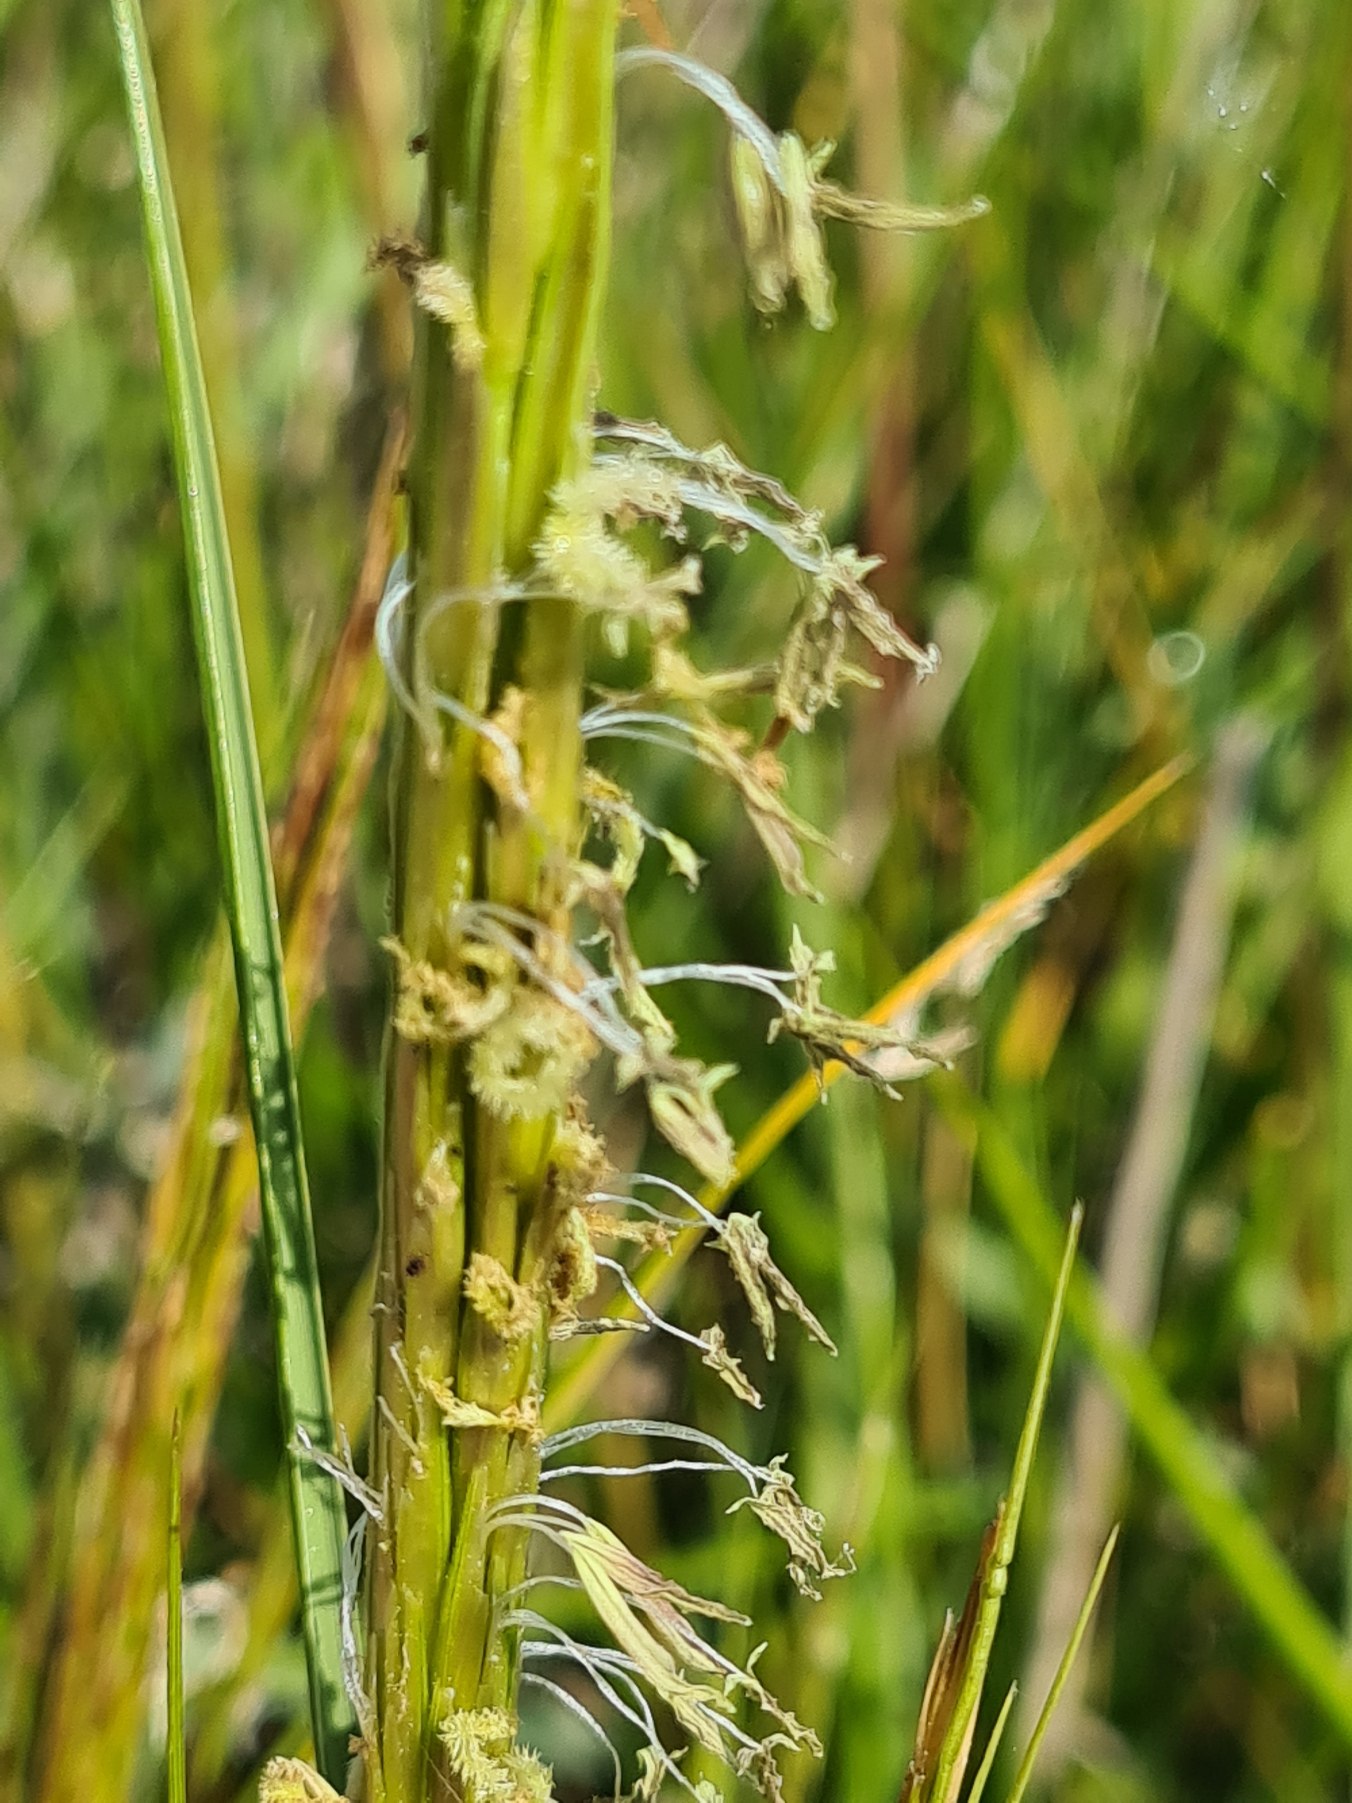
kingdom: Plantae
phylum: Tracheophyta
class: Liliopsida
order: Poales
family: Poaceae
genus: Sporobolus
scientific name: Sporobolus anglicus
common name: Engelsk vadegræs
